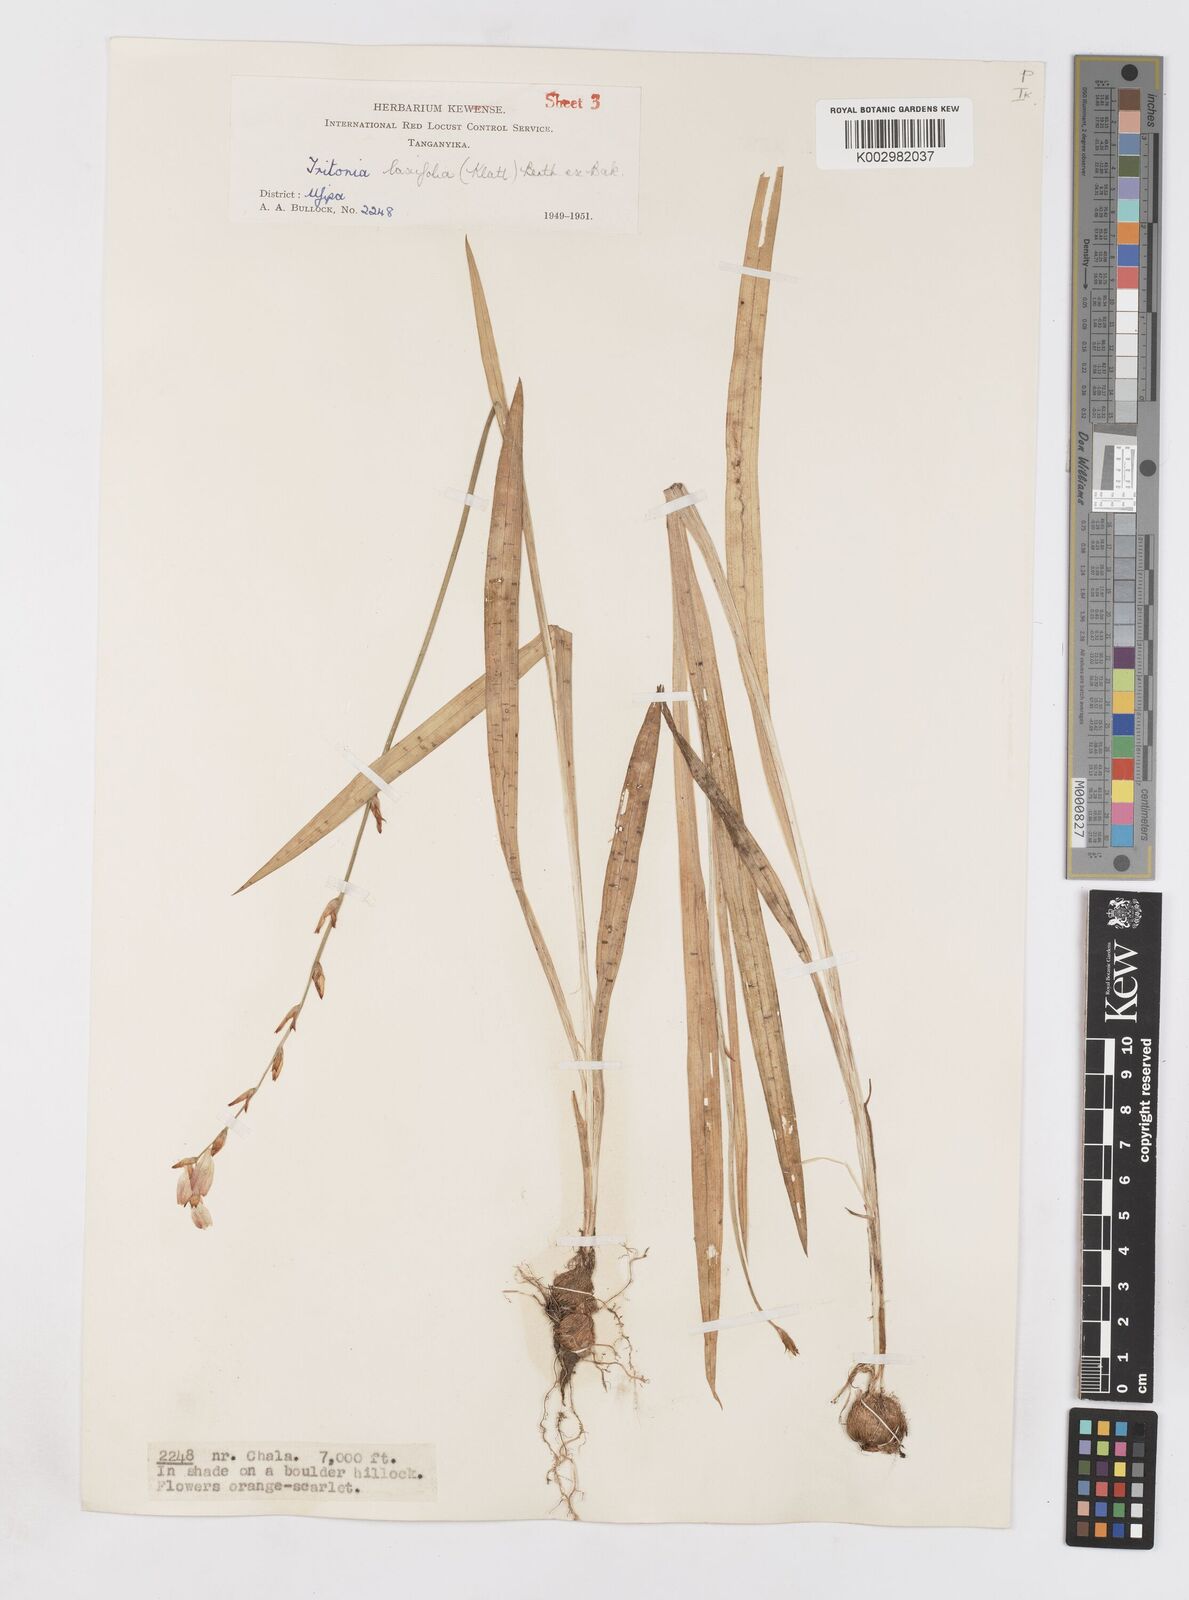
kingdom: Plantae
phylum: Tracheophyta
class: Liliopsida
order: Asparagales
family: Iridaceae
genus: Tritonia
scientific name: Tritonia laxifolia
